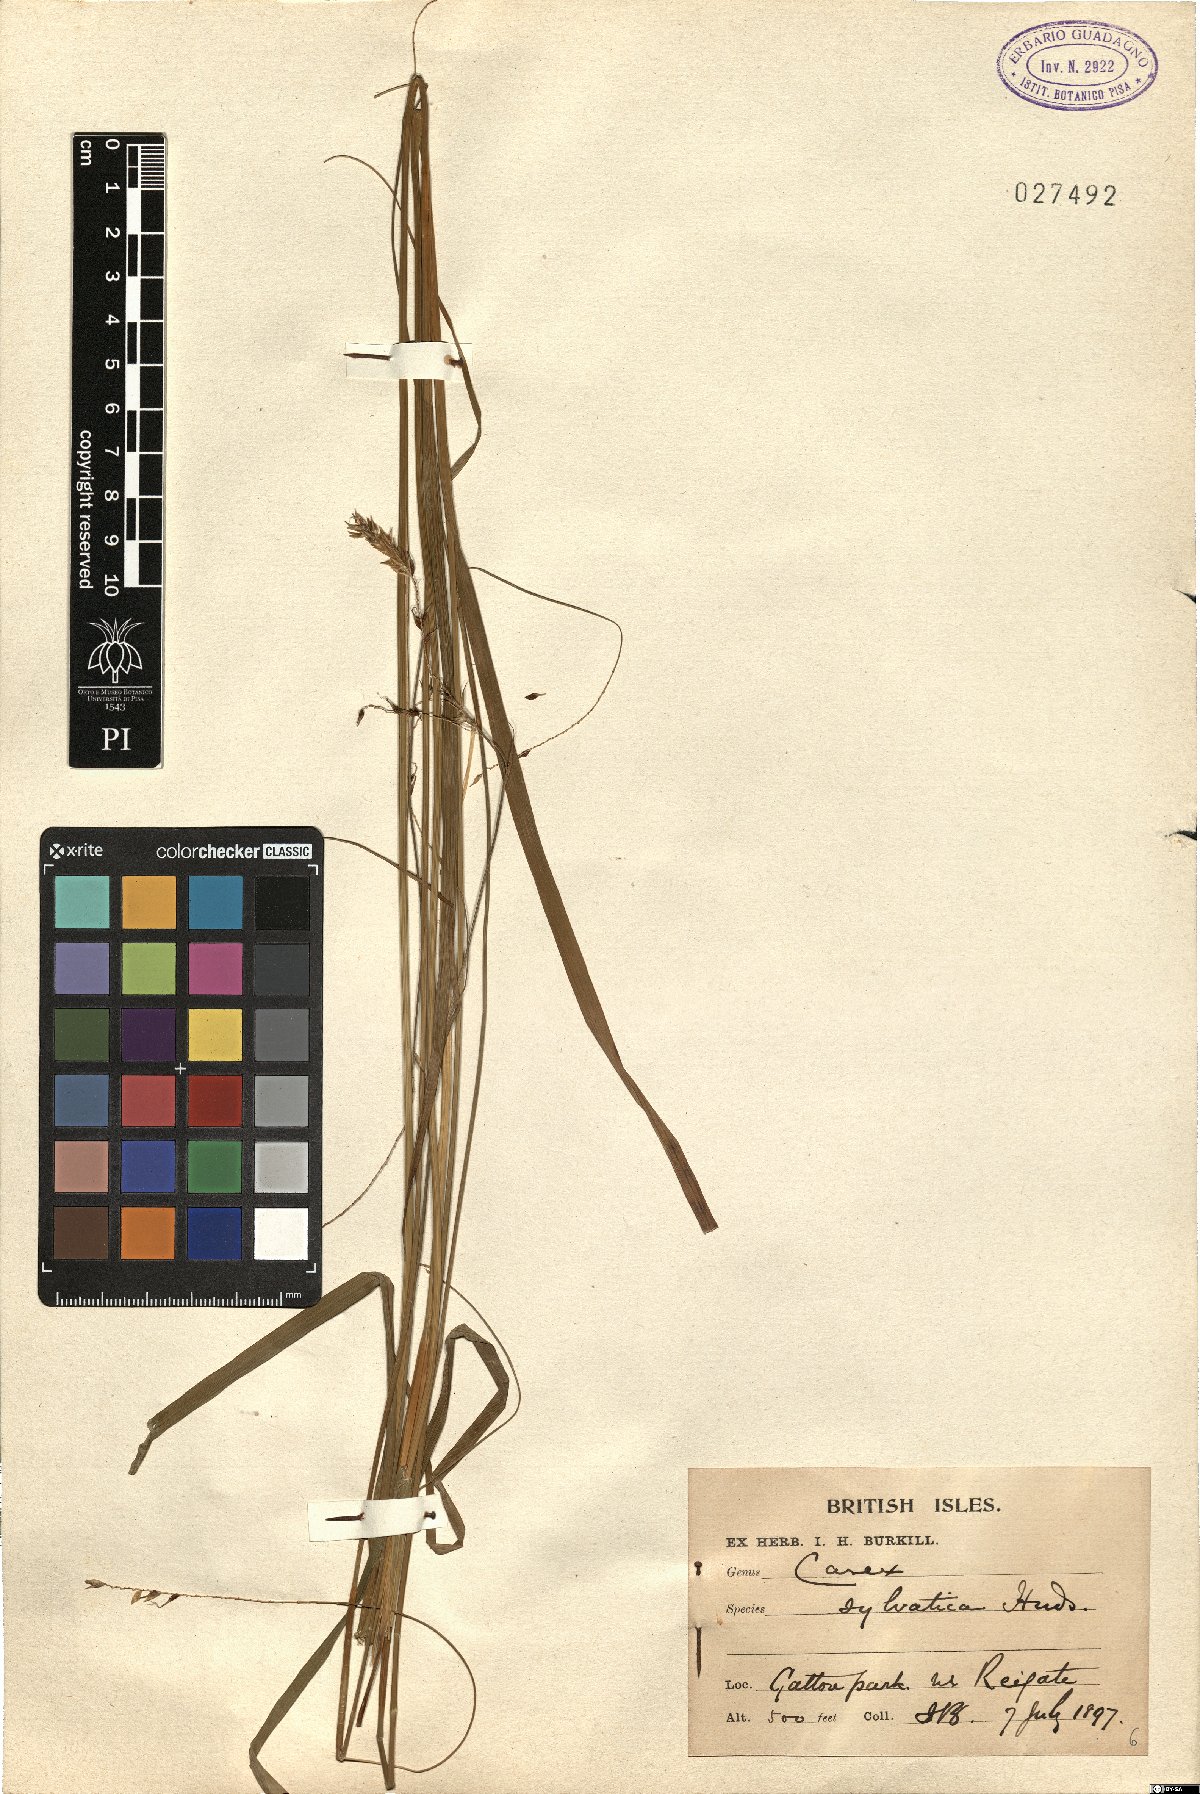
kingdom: Plantae
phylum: Tracheophyta
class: Liliopsida
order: Poales
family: Cyperaceae
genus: Carex
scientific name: Carex sylvatica
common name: Wood-sedge
